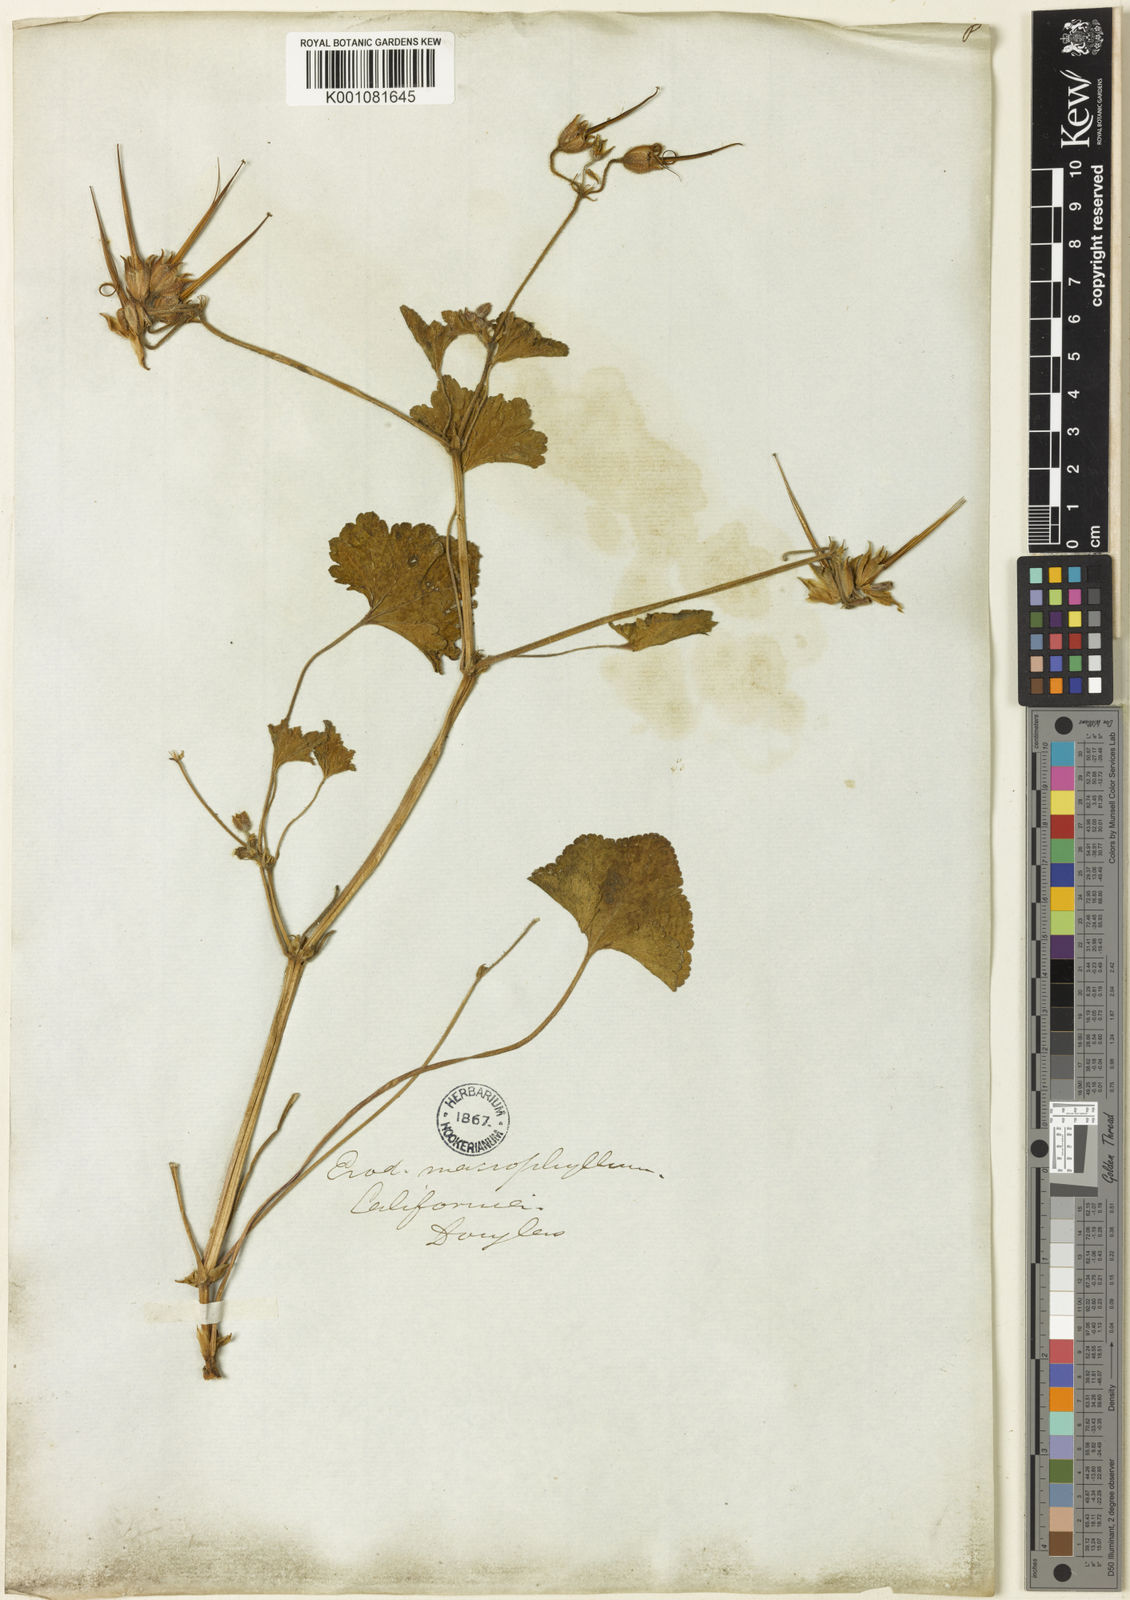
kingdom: Plantae
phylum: Tracheophyta
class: Magnoliopsida
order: Geraniales
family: Geraniaceae
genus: California
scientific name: California macrophylla
